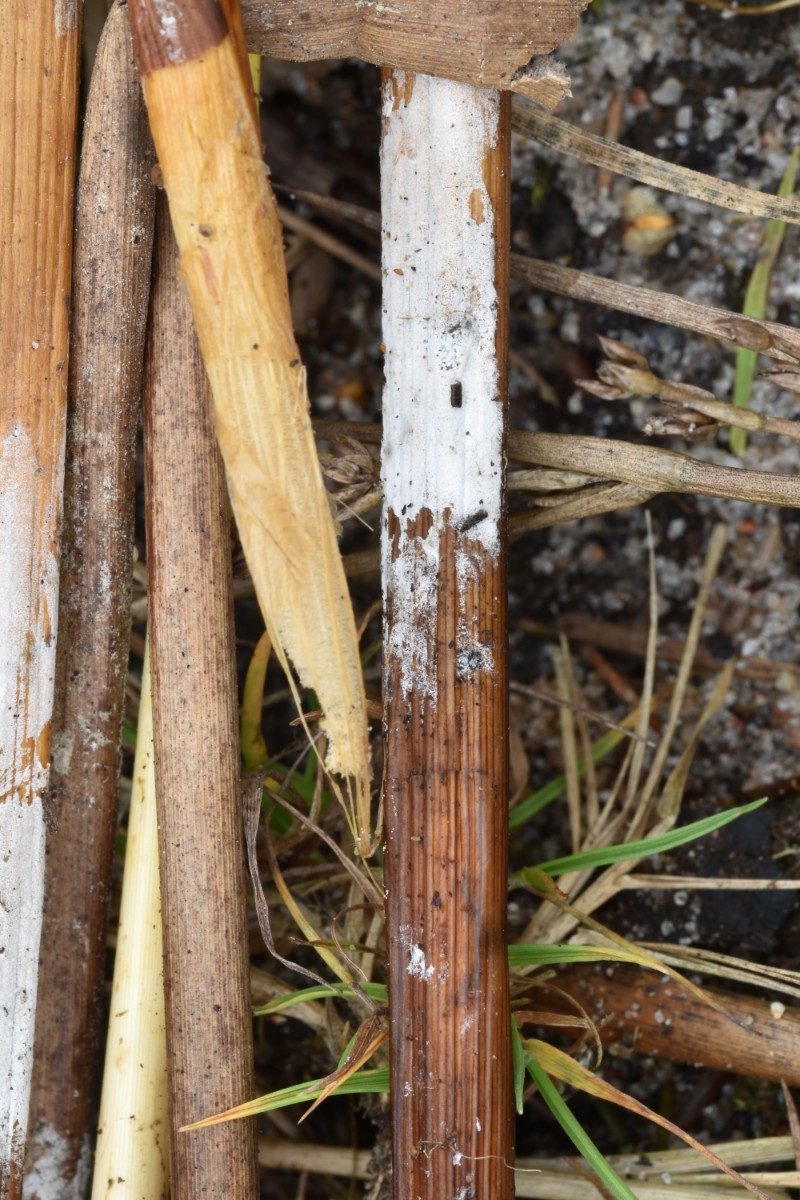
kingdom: Fungi
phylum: Basidiomycota
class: Agaricomycetes
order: Corticiales
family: Corticiaceae
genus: Lyomyces
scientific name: Lyomyces sambuci
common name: almindelig hyldehinde
